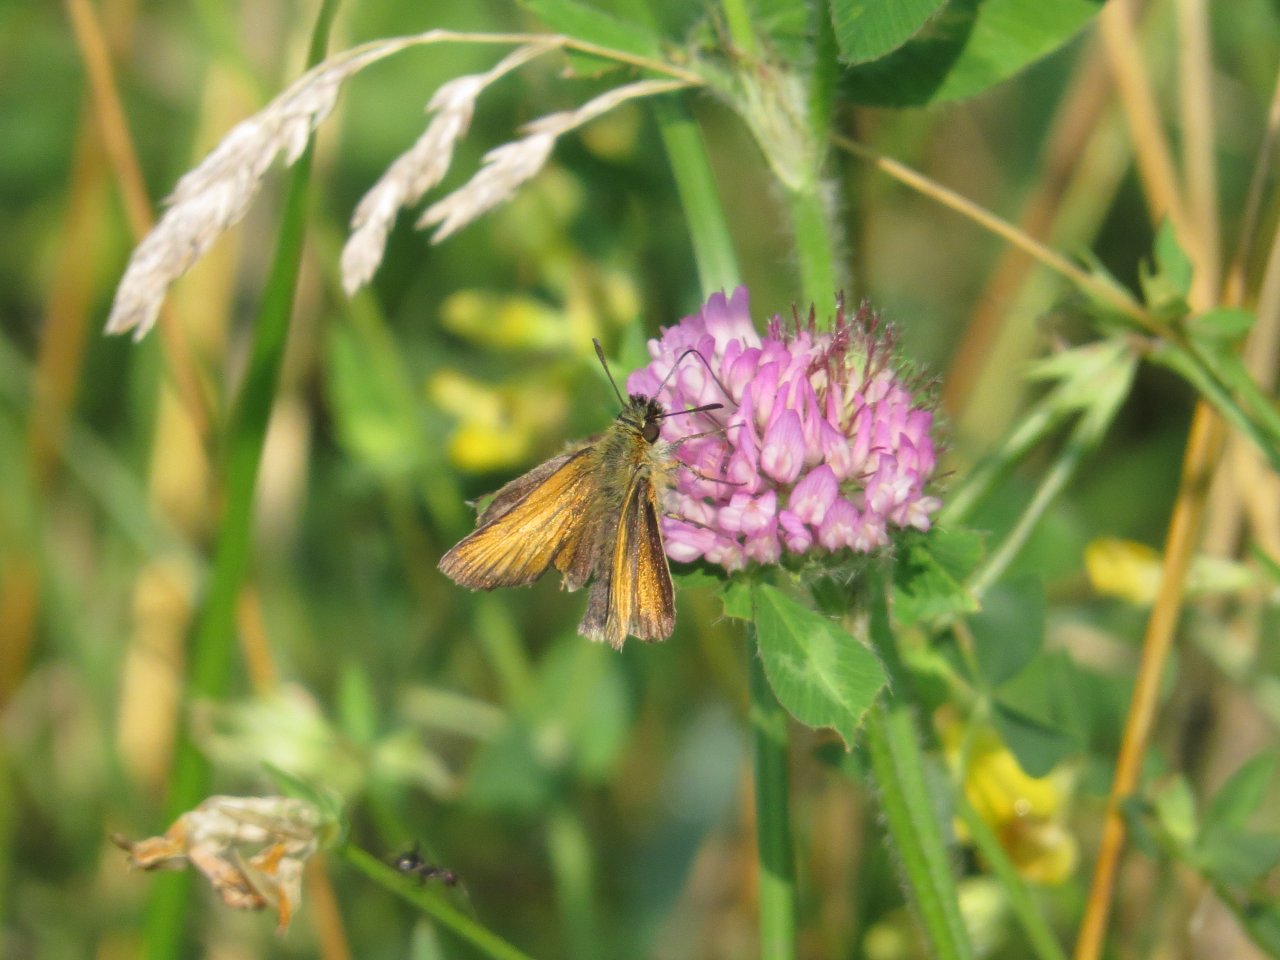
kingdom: Animalia
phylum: Arthropoda
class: Insecta
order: Lepidoptera
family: Hesperiidae
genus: Thymelicus
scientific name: Thymelicus lineola
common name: European Skipper
